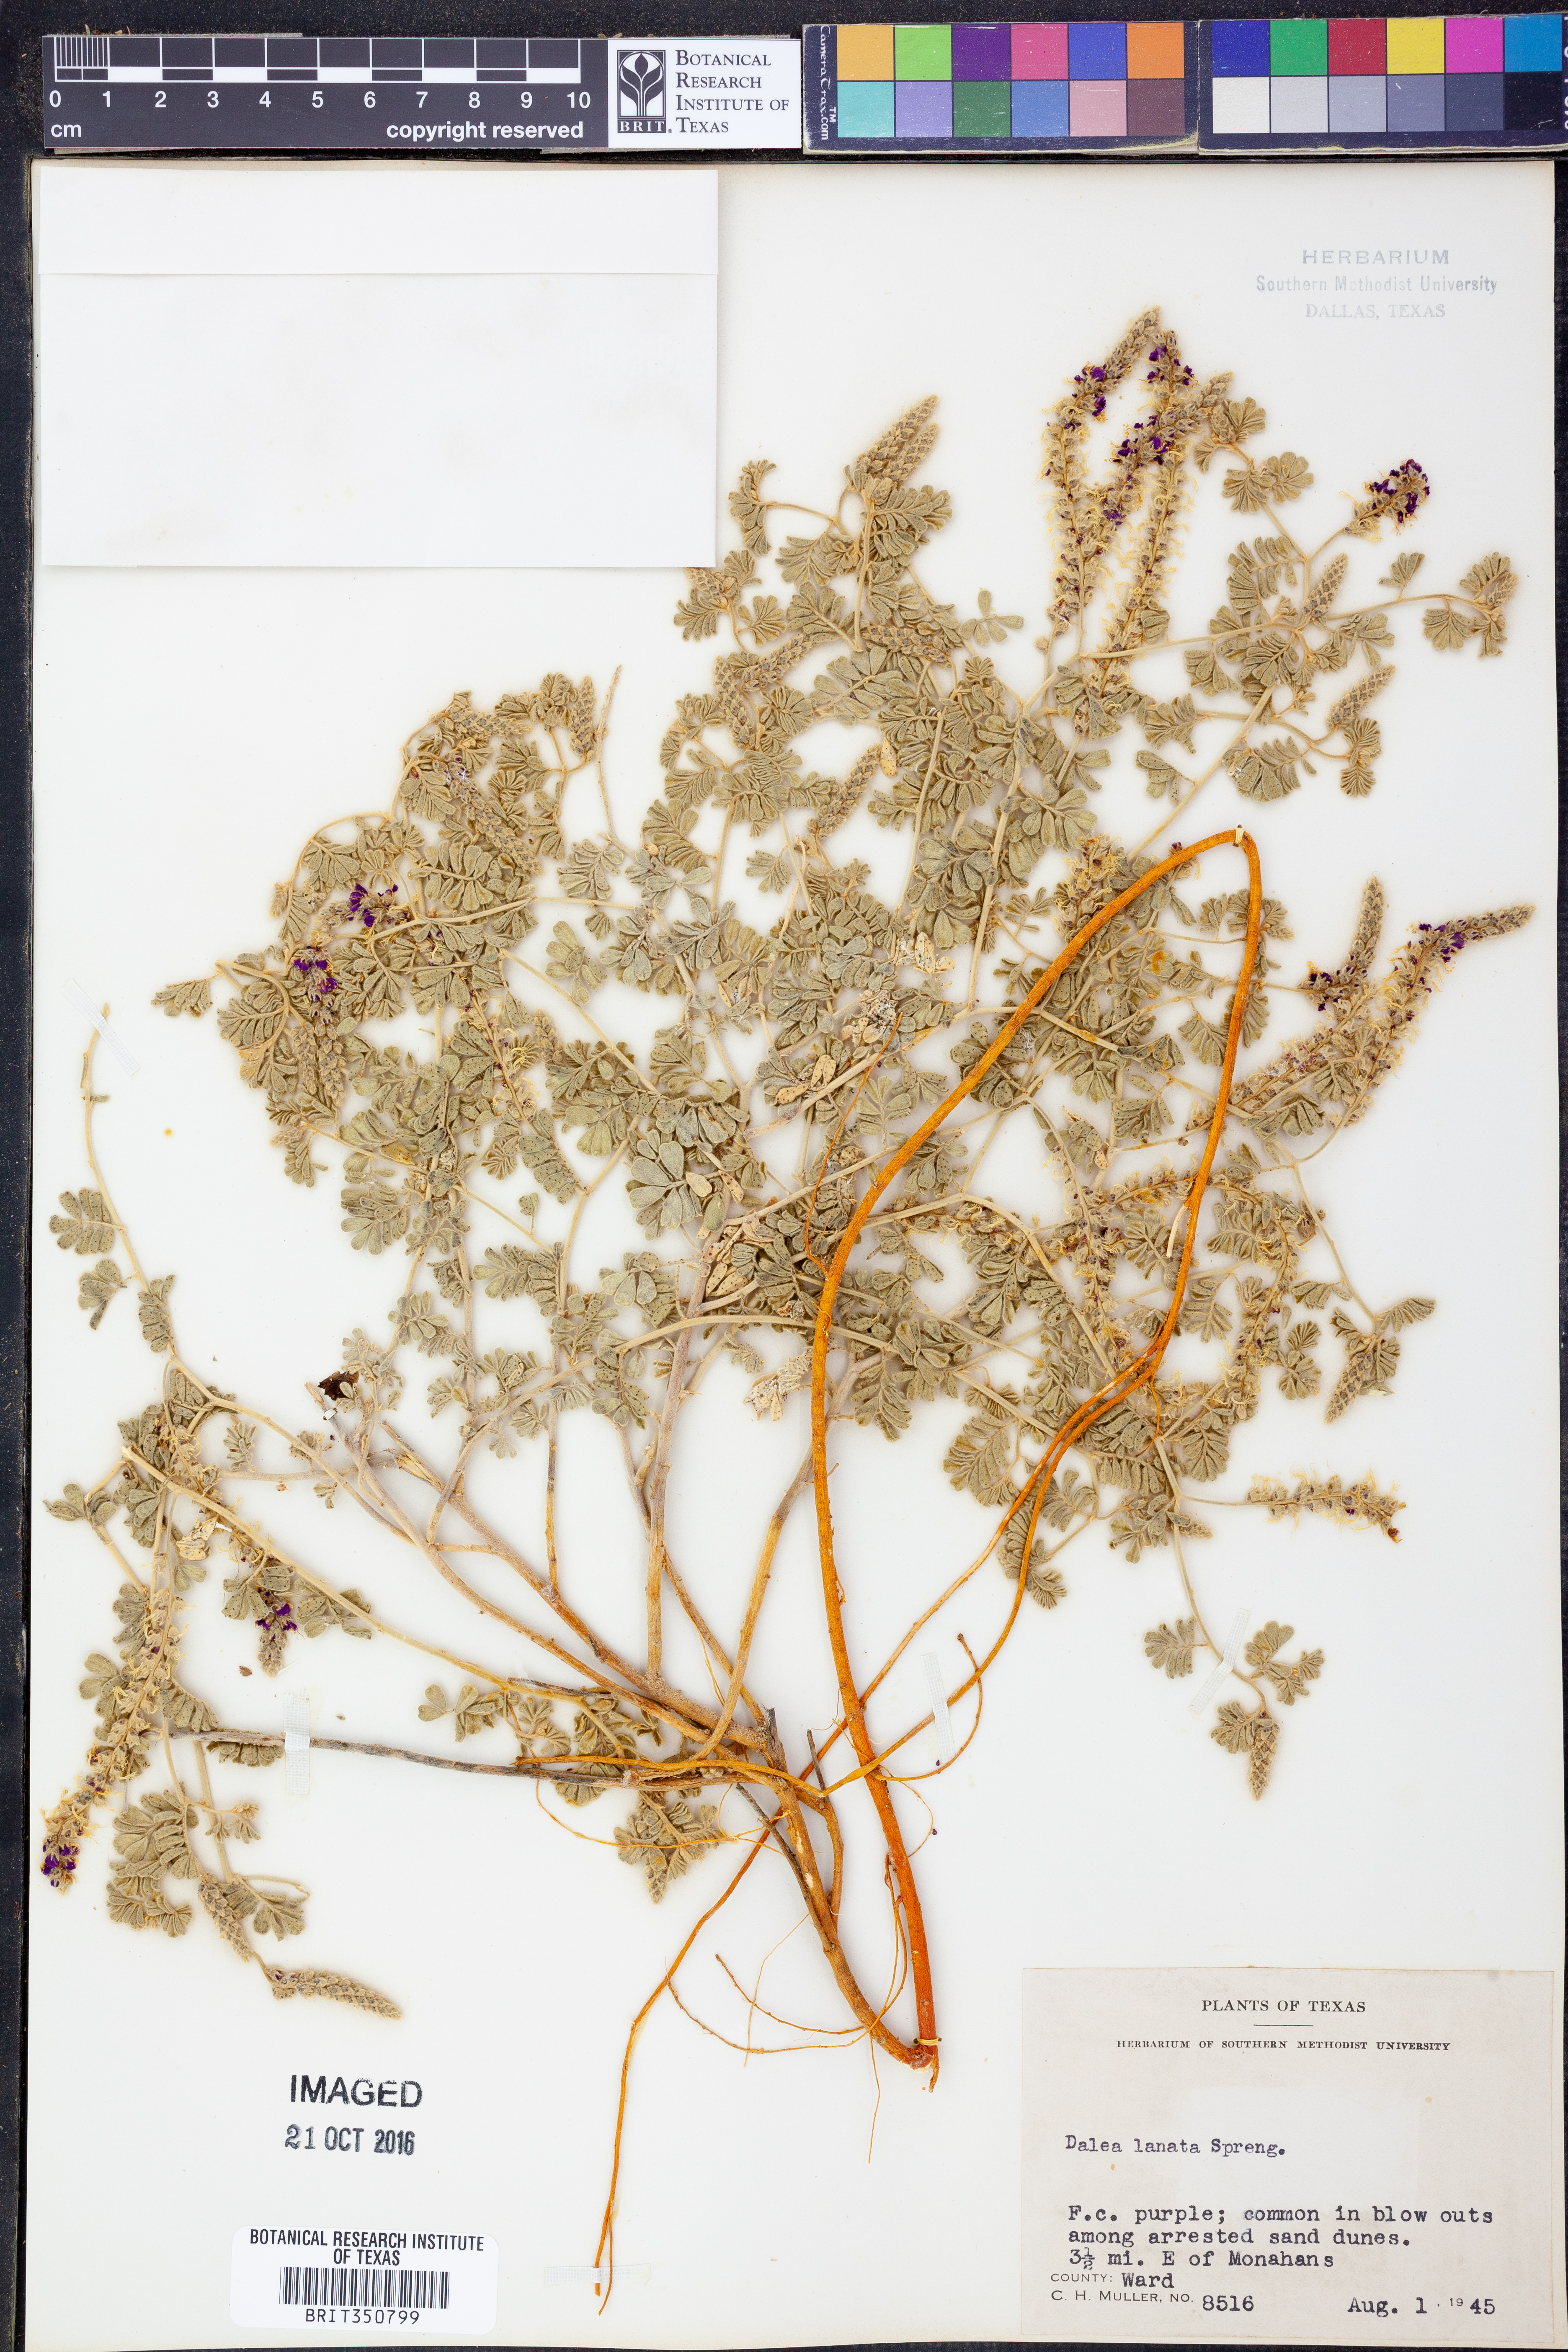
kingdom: Plantae
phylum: Tracheophyta
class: Magnoliopsida
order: Fabales
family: Fabaceae
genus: Dalea
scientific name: Dalea lanata
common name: Woolly dalea
